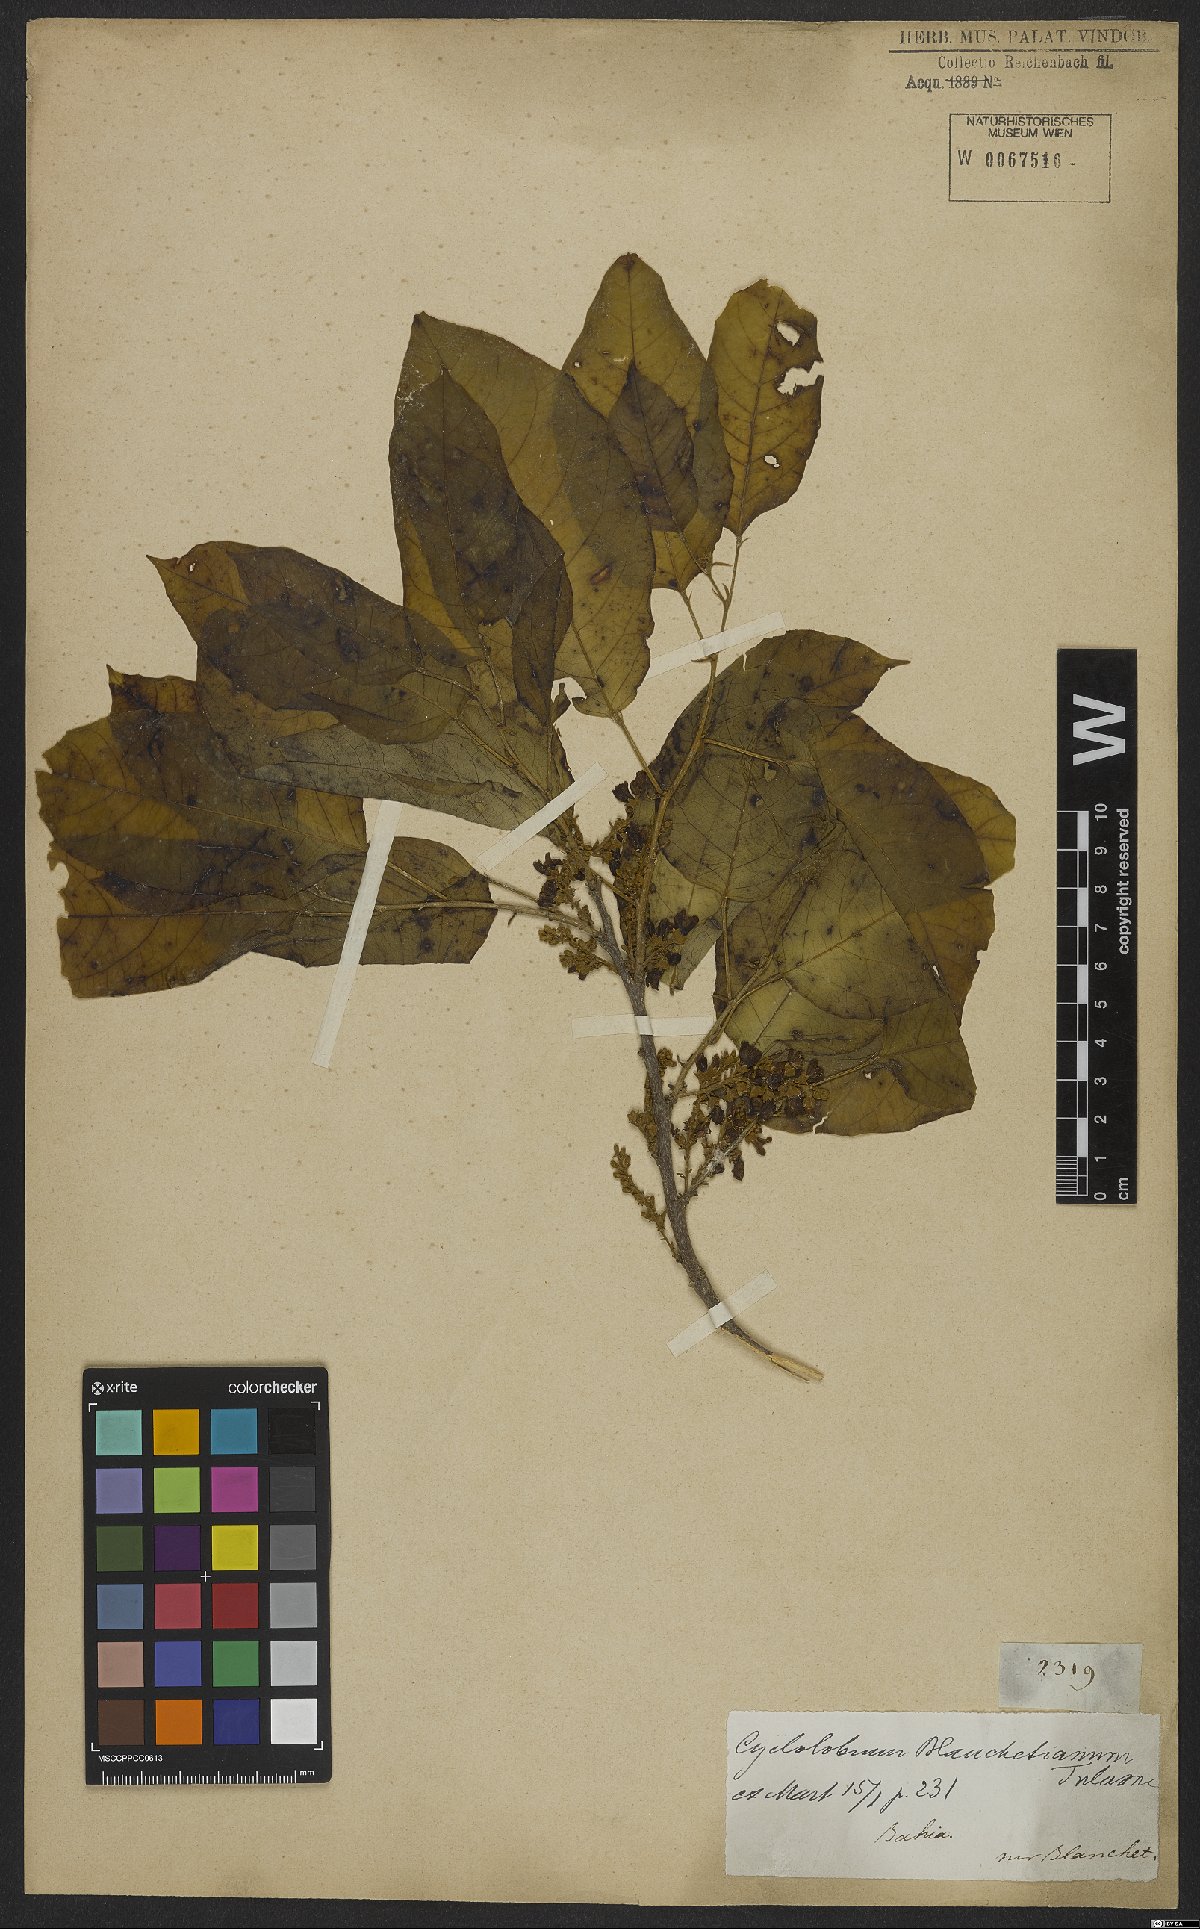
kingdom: Plantae
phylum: Tracheophyta
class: Magnoliopsida
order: Fabales
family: Fabaceae
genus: Cyclolobium
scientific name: Cyclolobium
